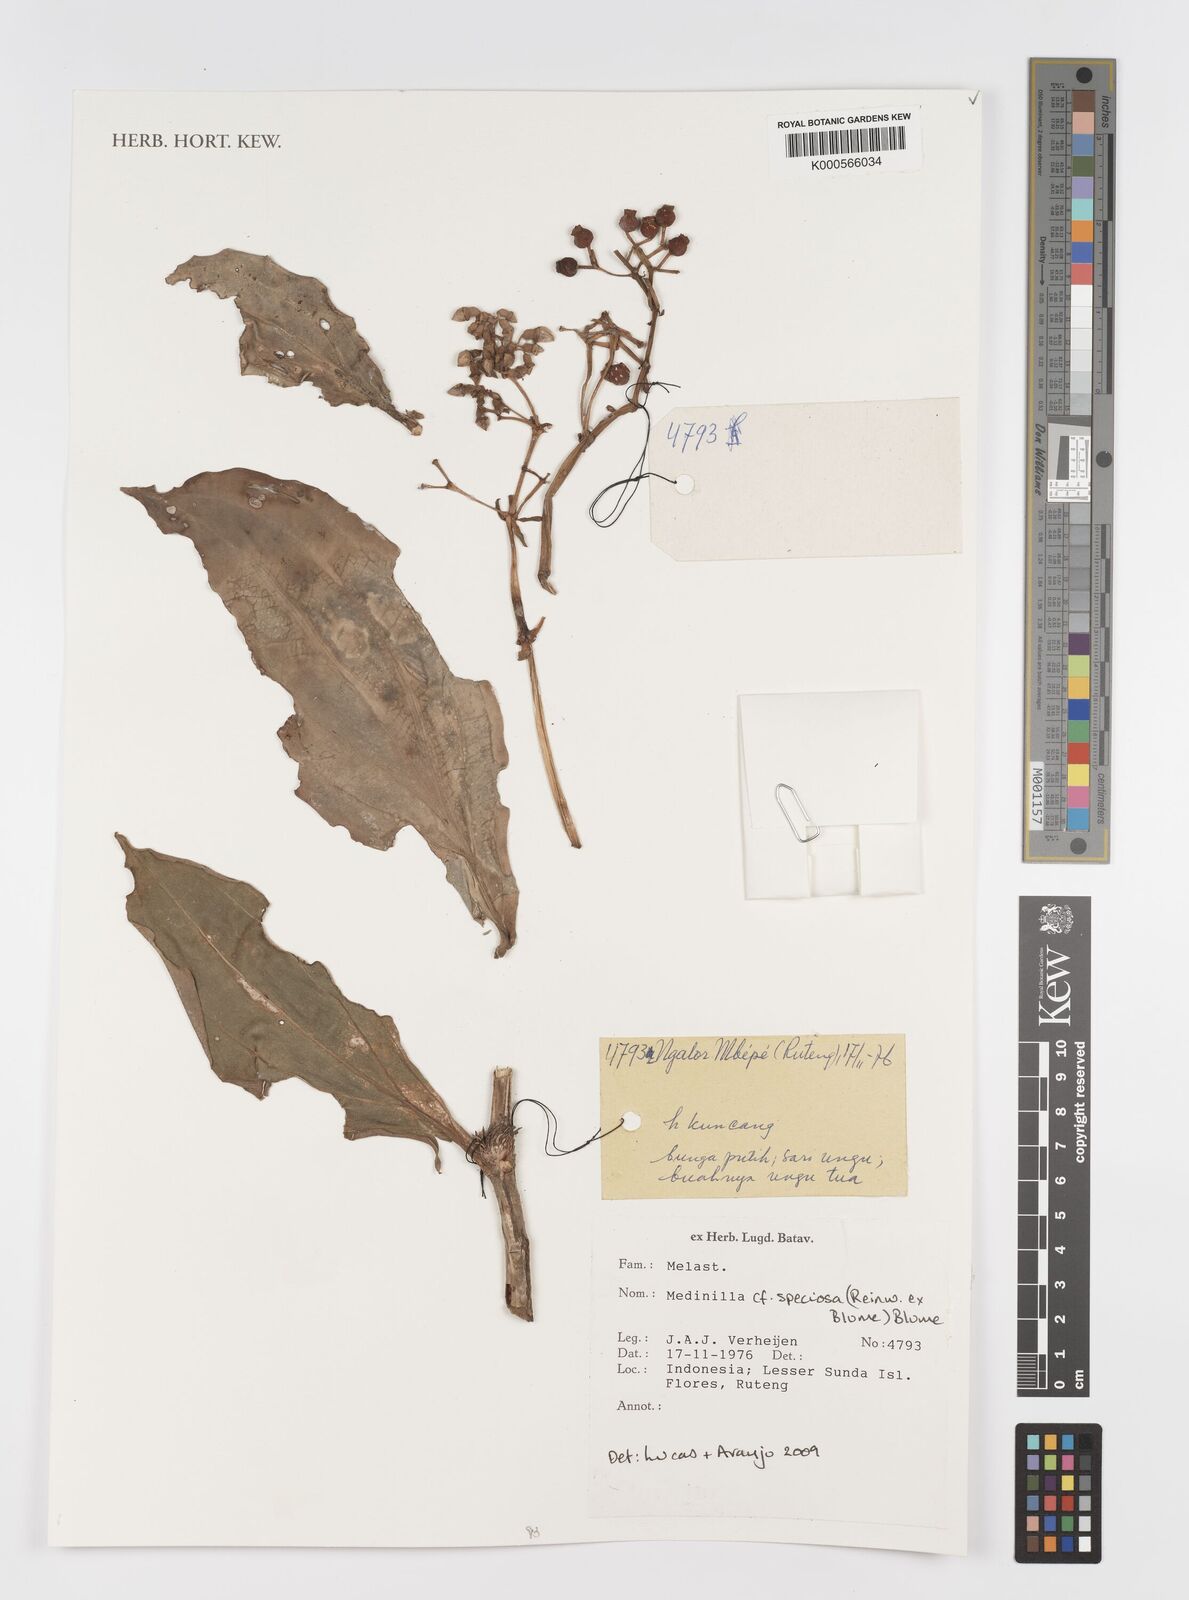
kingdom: Plantae
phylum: Tracheophyta
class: Magnoliopsida
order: Myrtales
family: Melastomataceae
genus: Medinilla
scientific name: Medinilla speciosa
